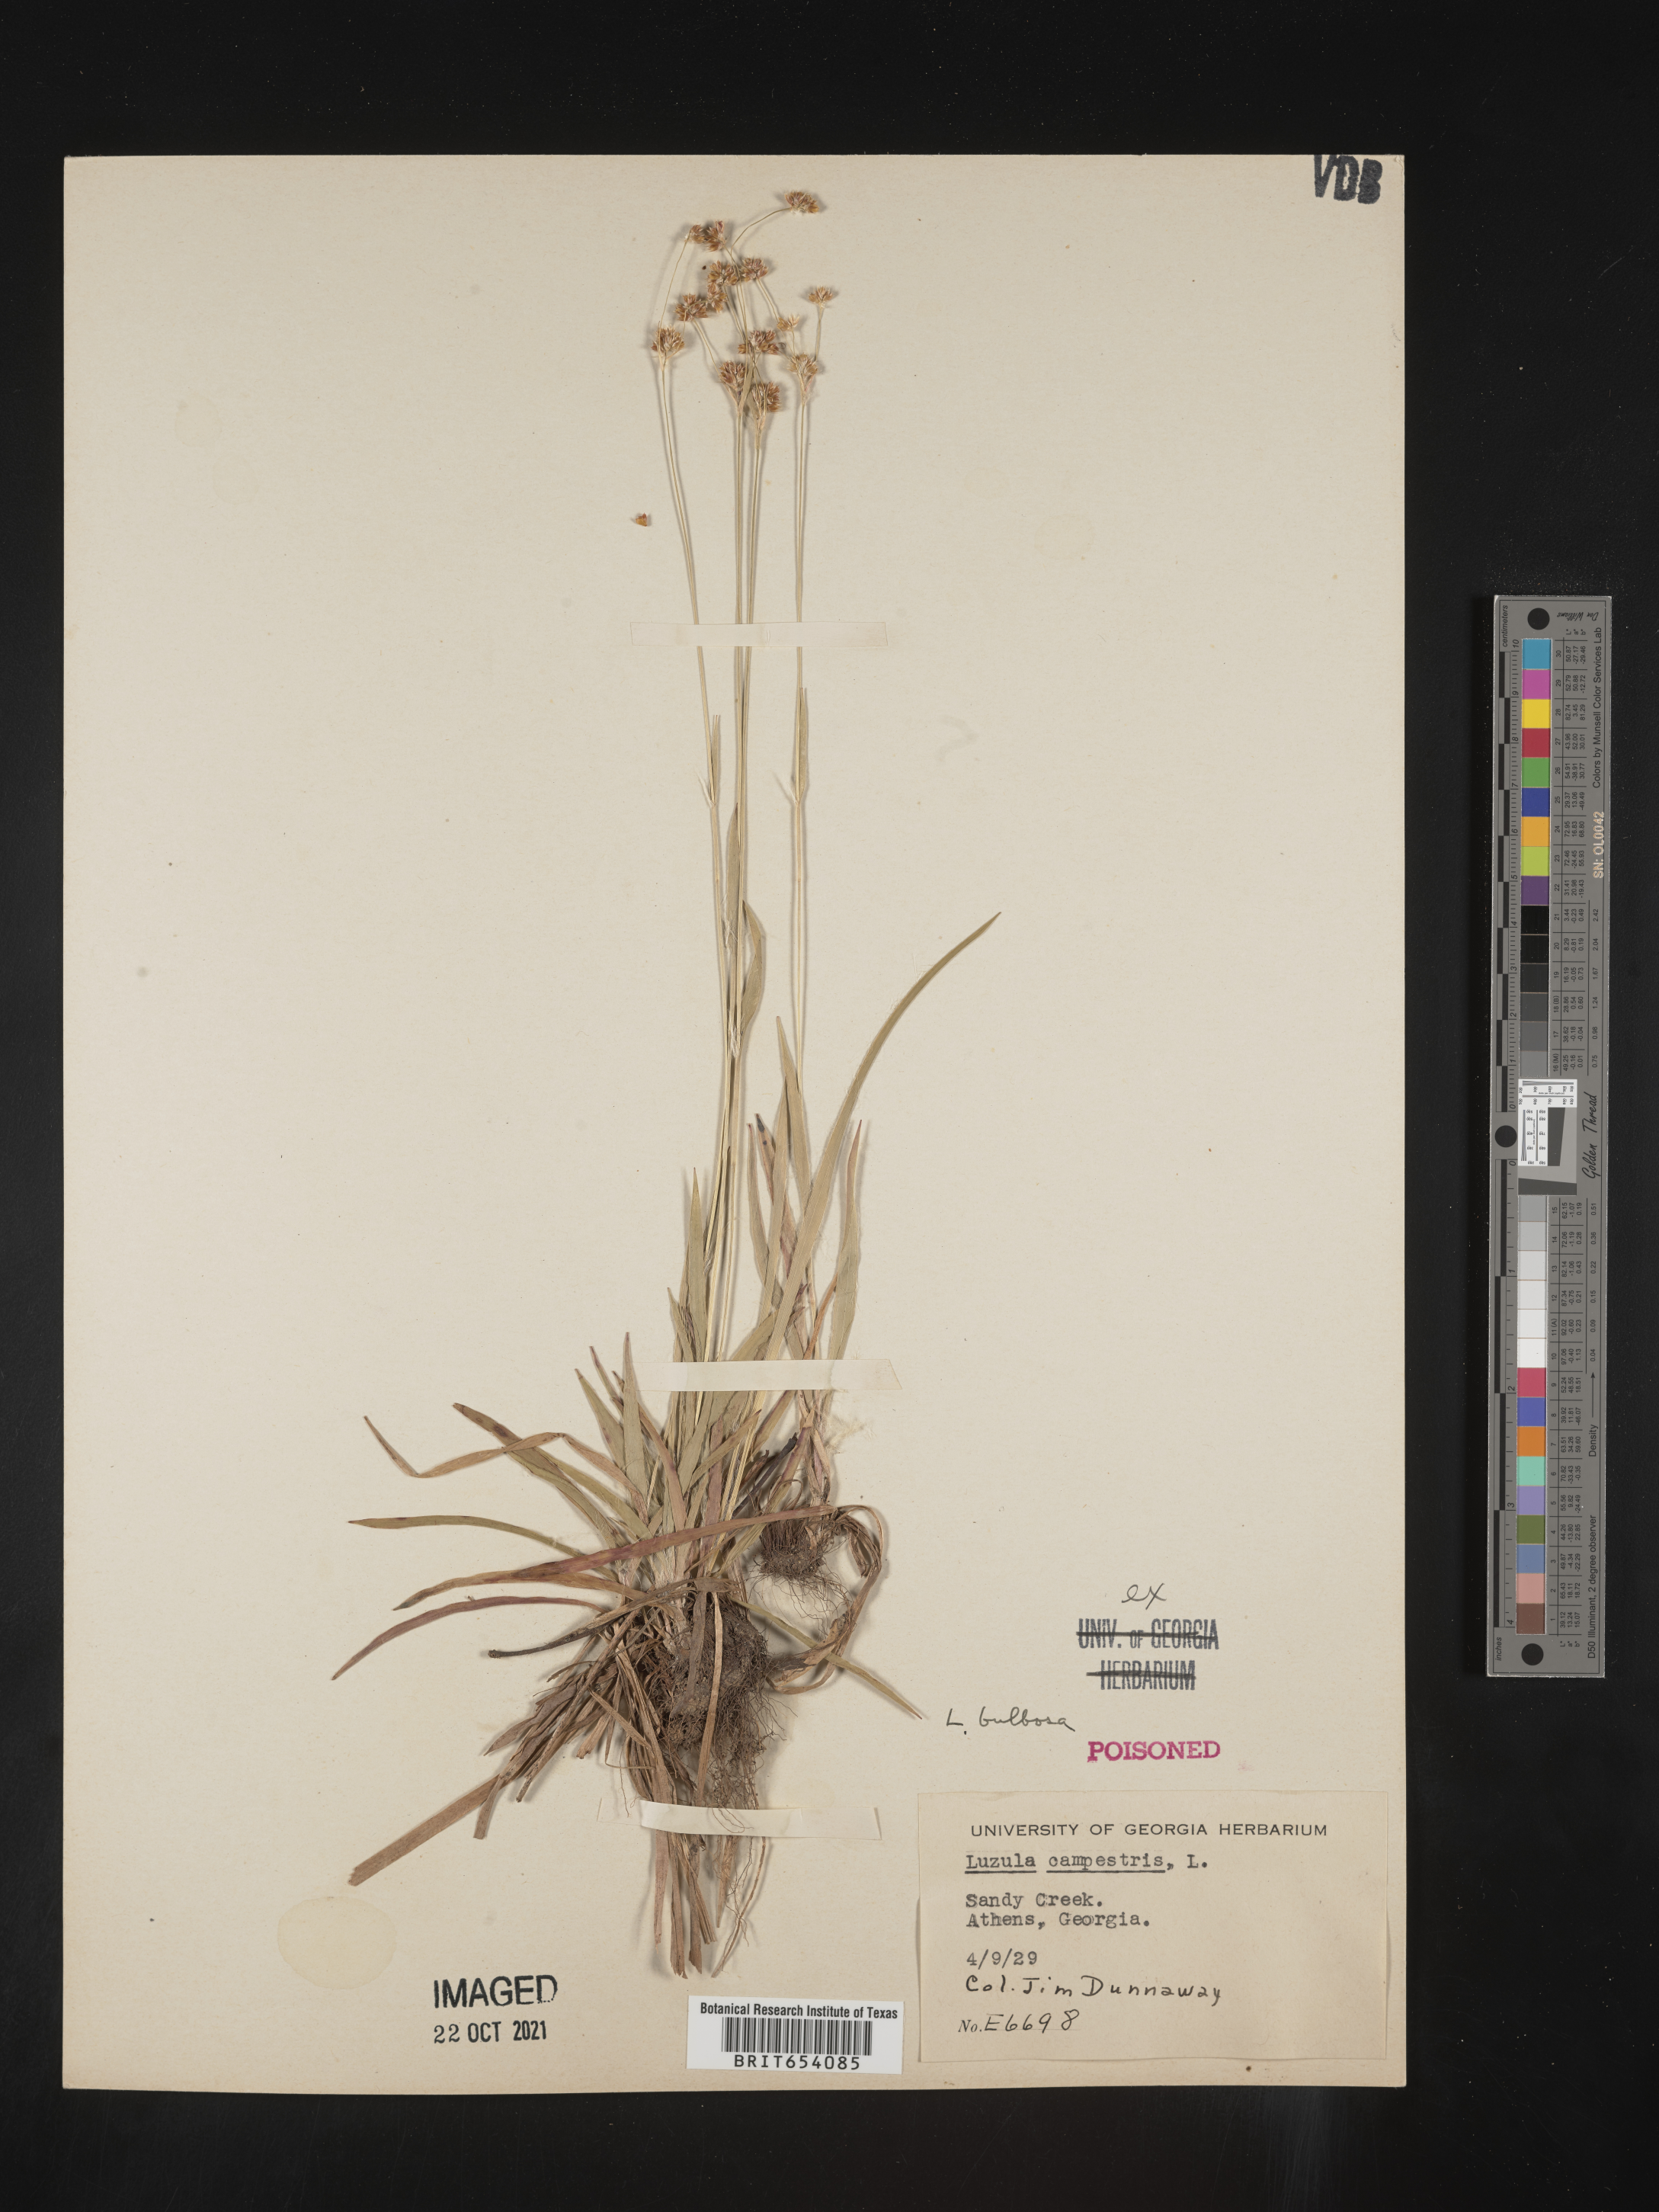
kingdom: Plantae
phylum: Tracheophyta
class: Liliopsida
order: Poales
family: Juncaceae
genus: Luzula
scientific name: Luzula bulbosa
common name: Bulbous woodrush
